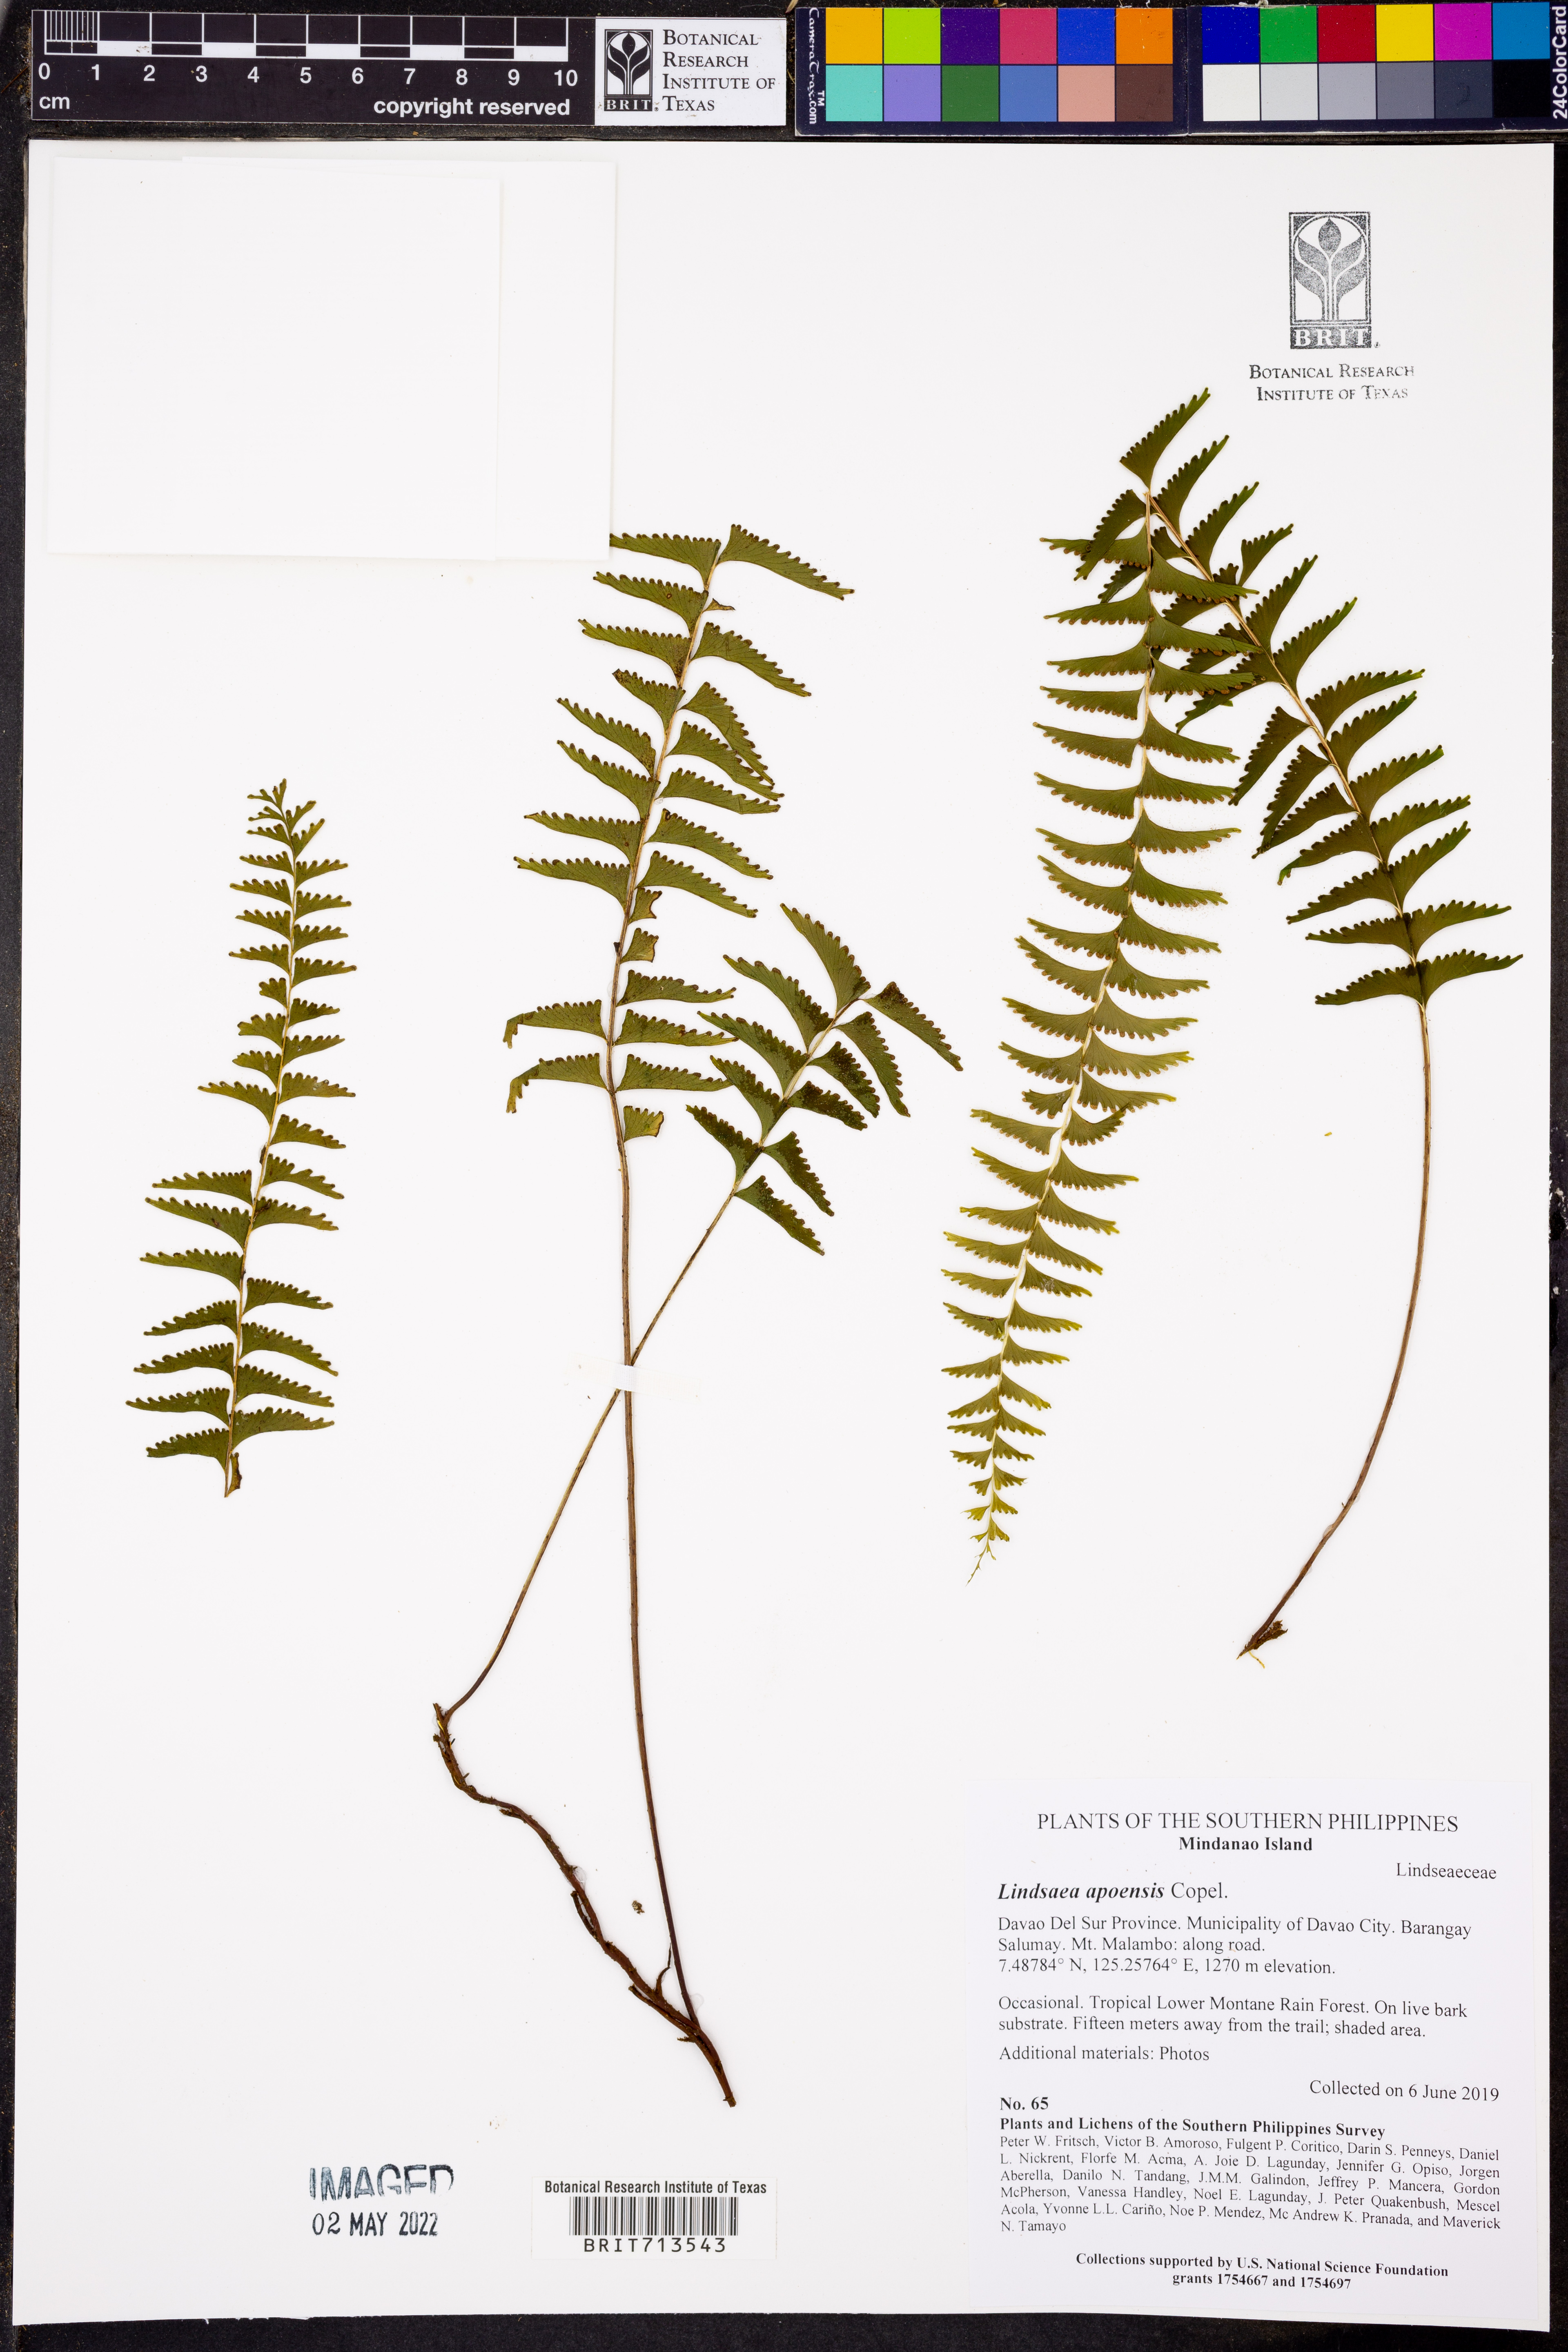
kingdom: Plantae
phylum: Tracheophyta
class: Polypodiopsida
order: Polypodiales
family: Lindsaeaceae
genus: Lindsaea
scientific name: Lindsaea apoensis
